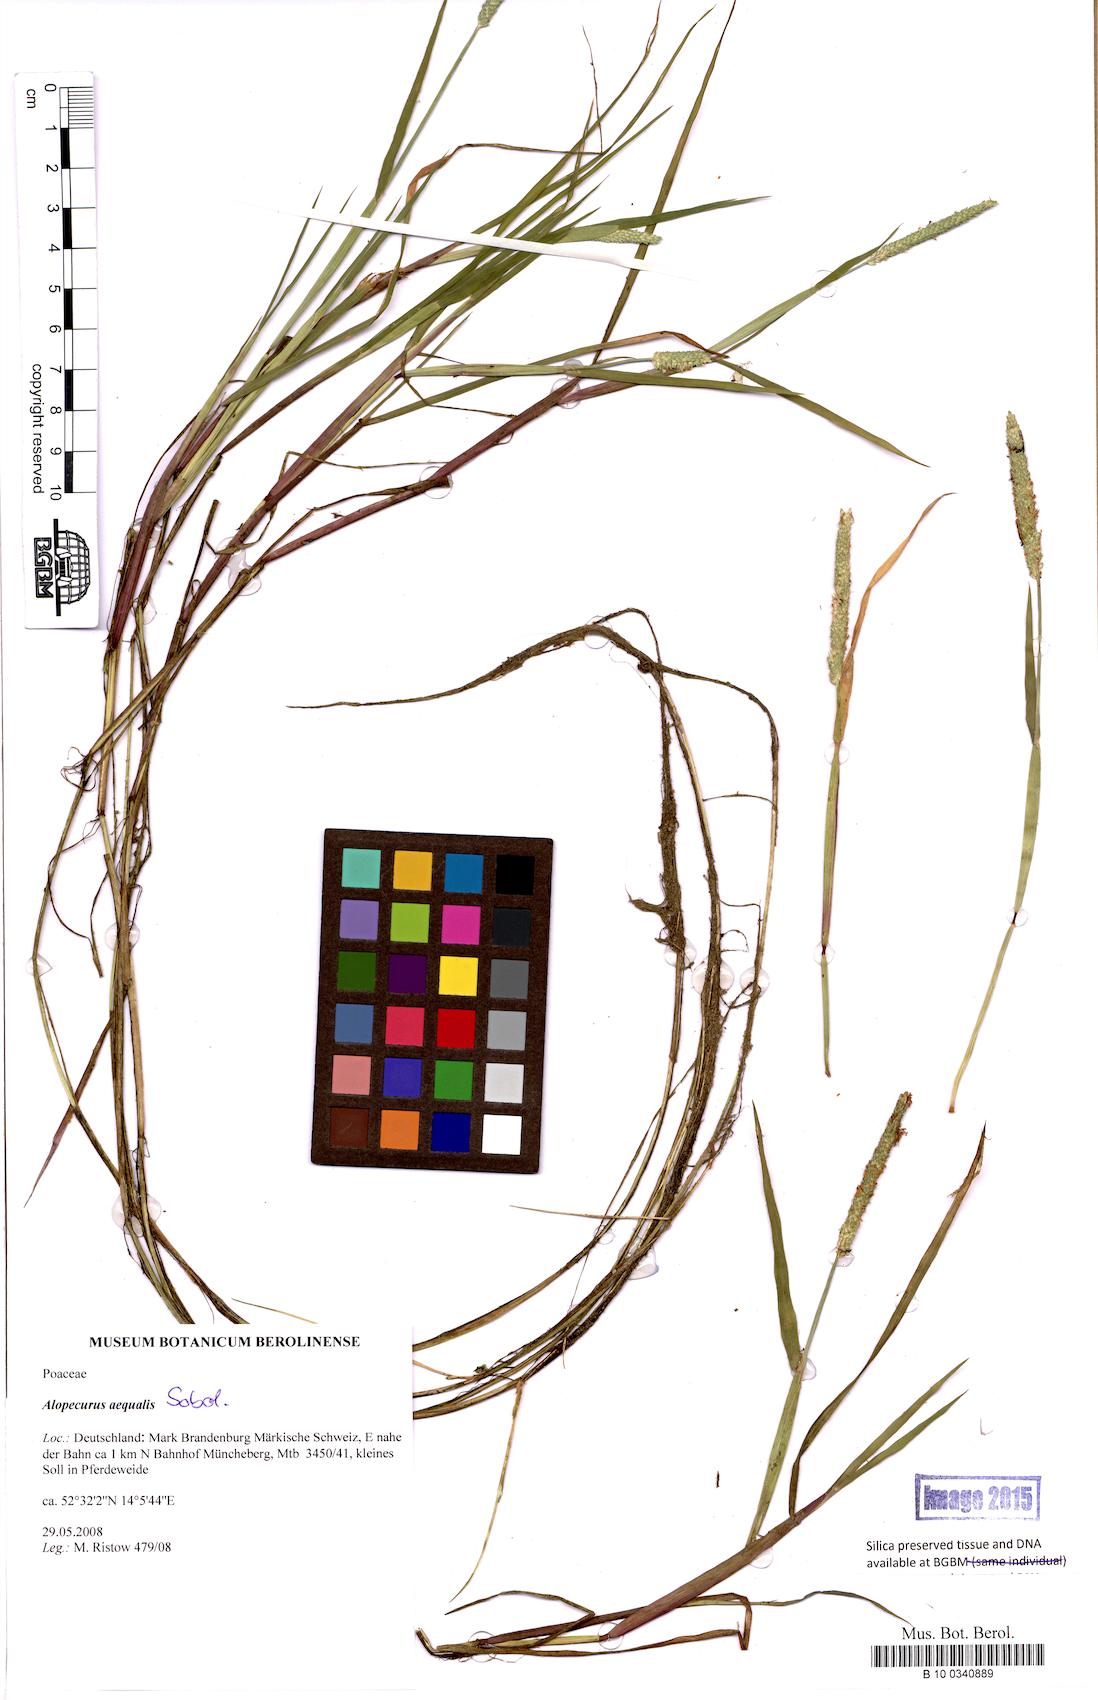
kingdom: Plantae
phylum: Tracheophyta
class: Magnoliopsida
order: Asterales
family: Asteraceae
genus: Erigeron
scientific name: Erigeron acris
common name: Blue fleabane
